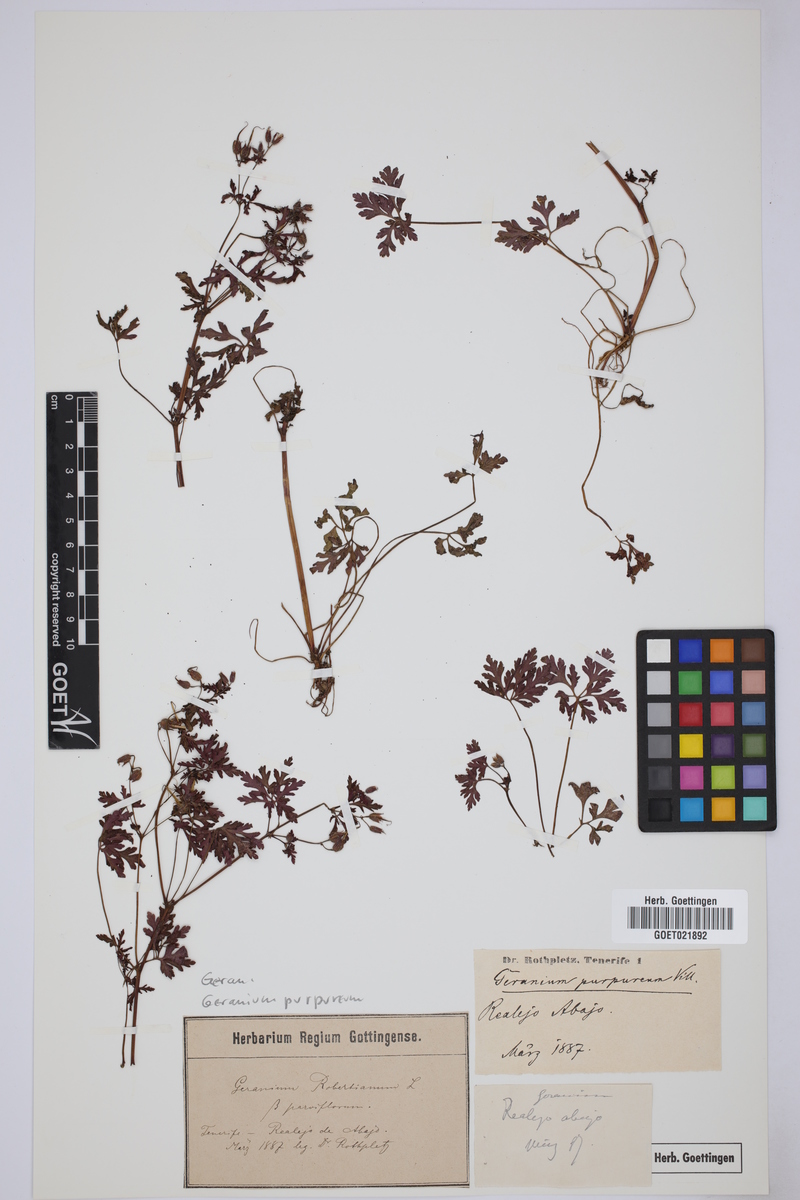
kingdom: Plantae
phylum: Tracheophyta
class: Magnoliopsida
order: Geraniales
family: Geraniaceae
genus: Geranium
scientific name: Geranium purpureum
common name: Little-robin
